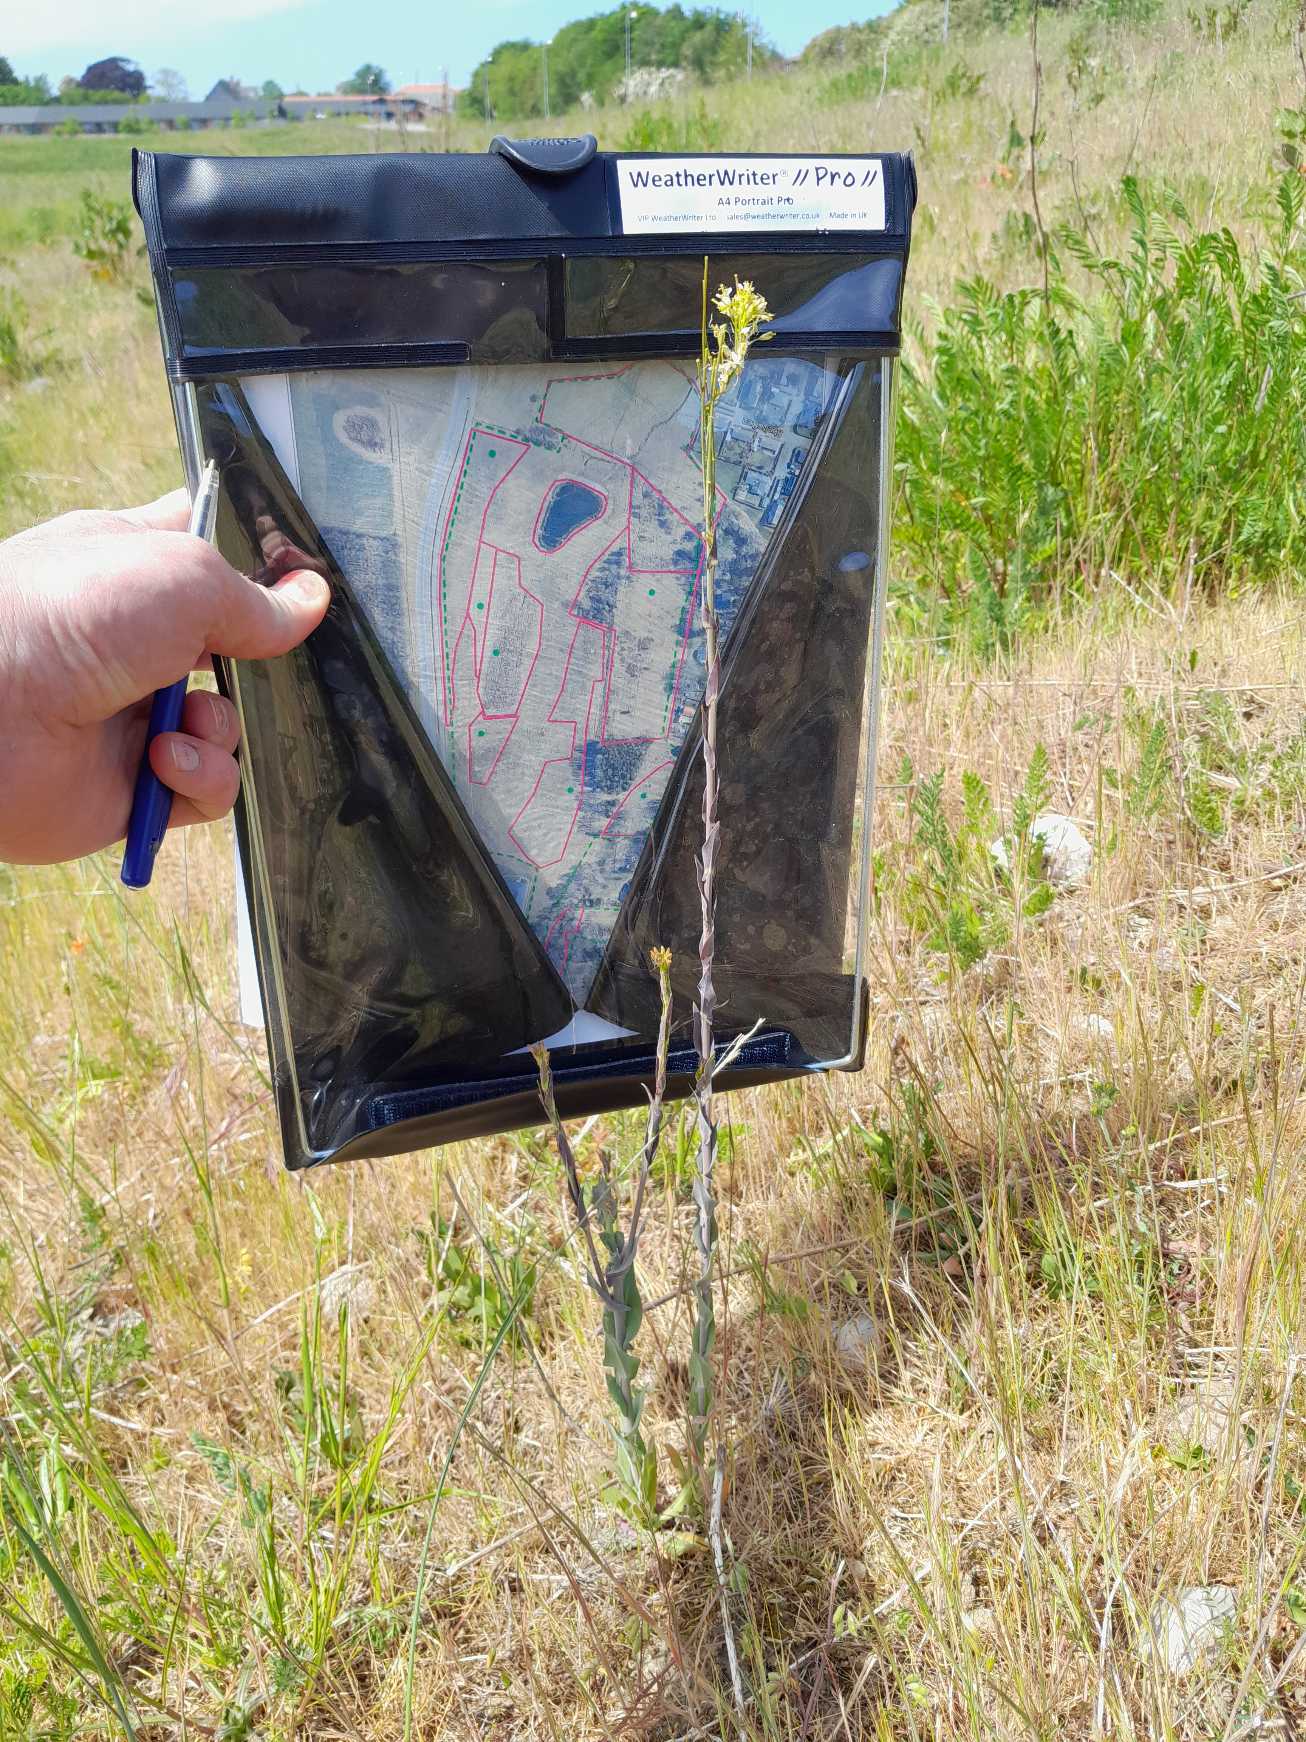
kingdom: Plantae
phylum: Tracheophyta
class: Magnoliopsida
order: Brassicales
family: Brassicaceae
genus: Turritis
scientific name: Turritis glabra
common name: Tårnurt
